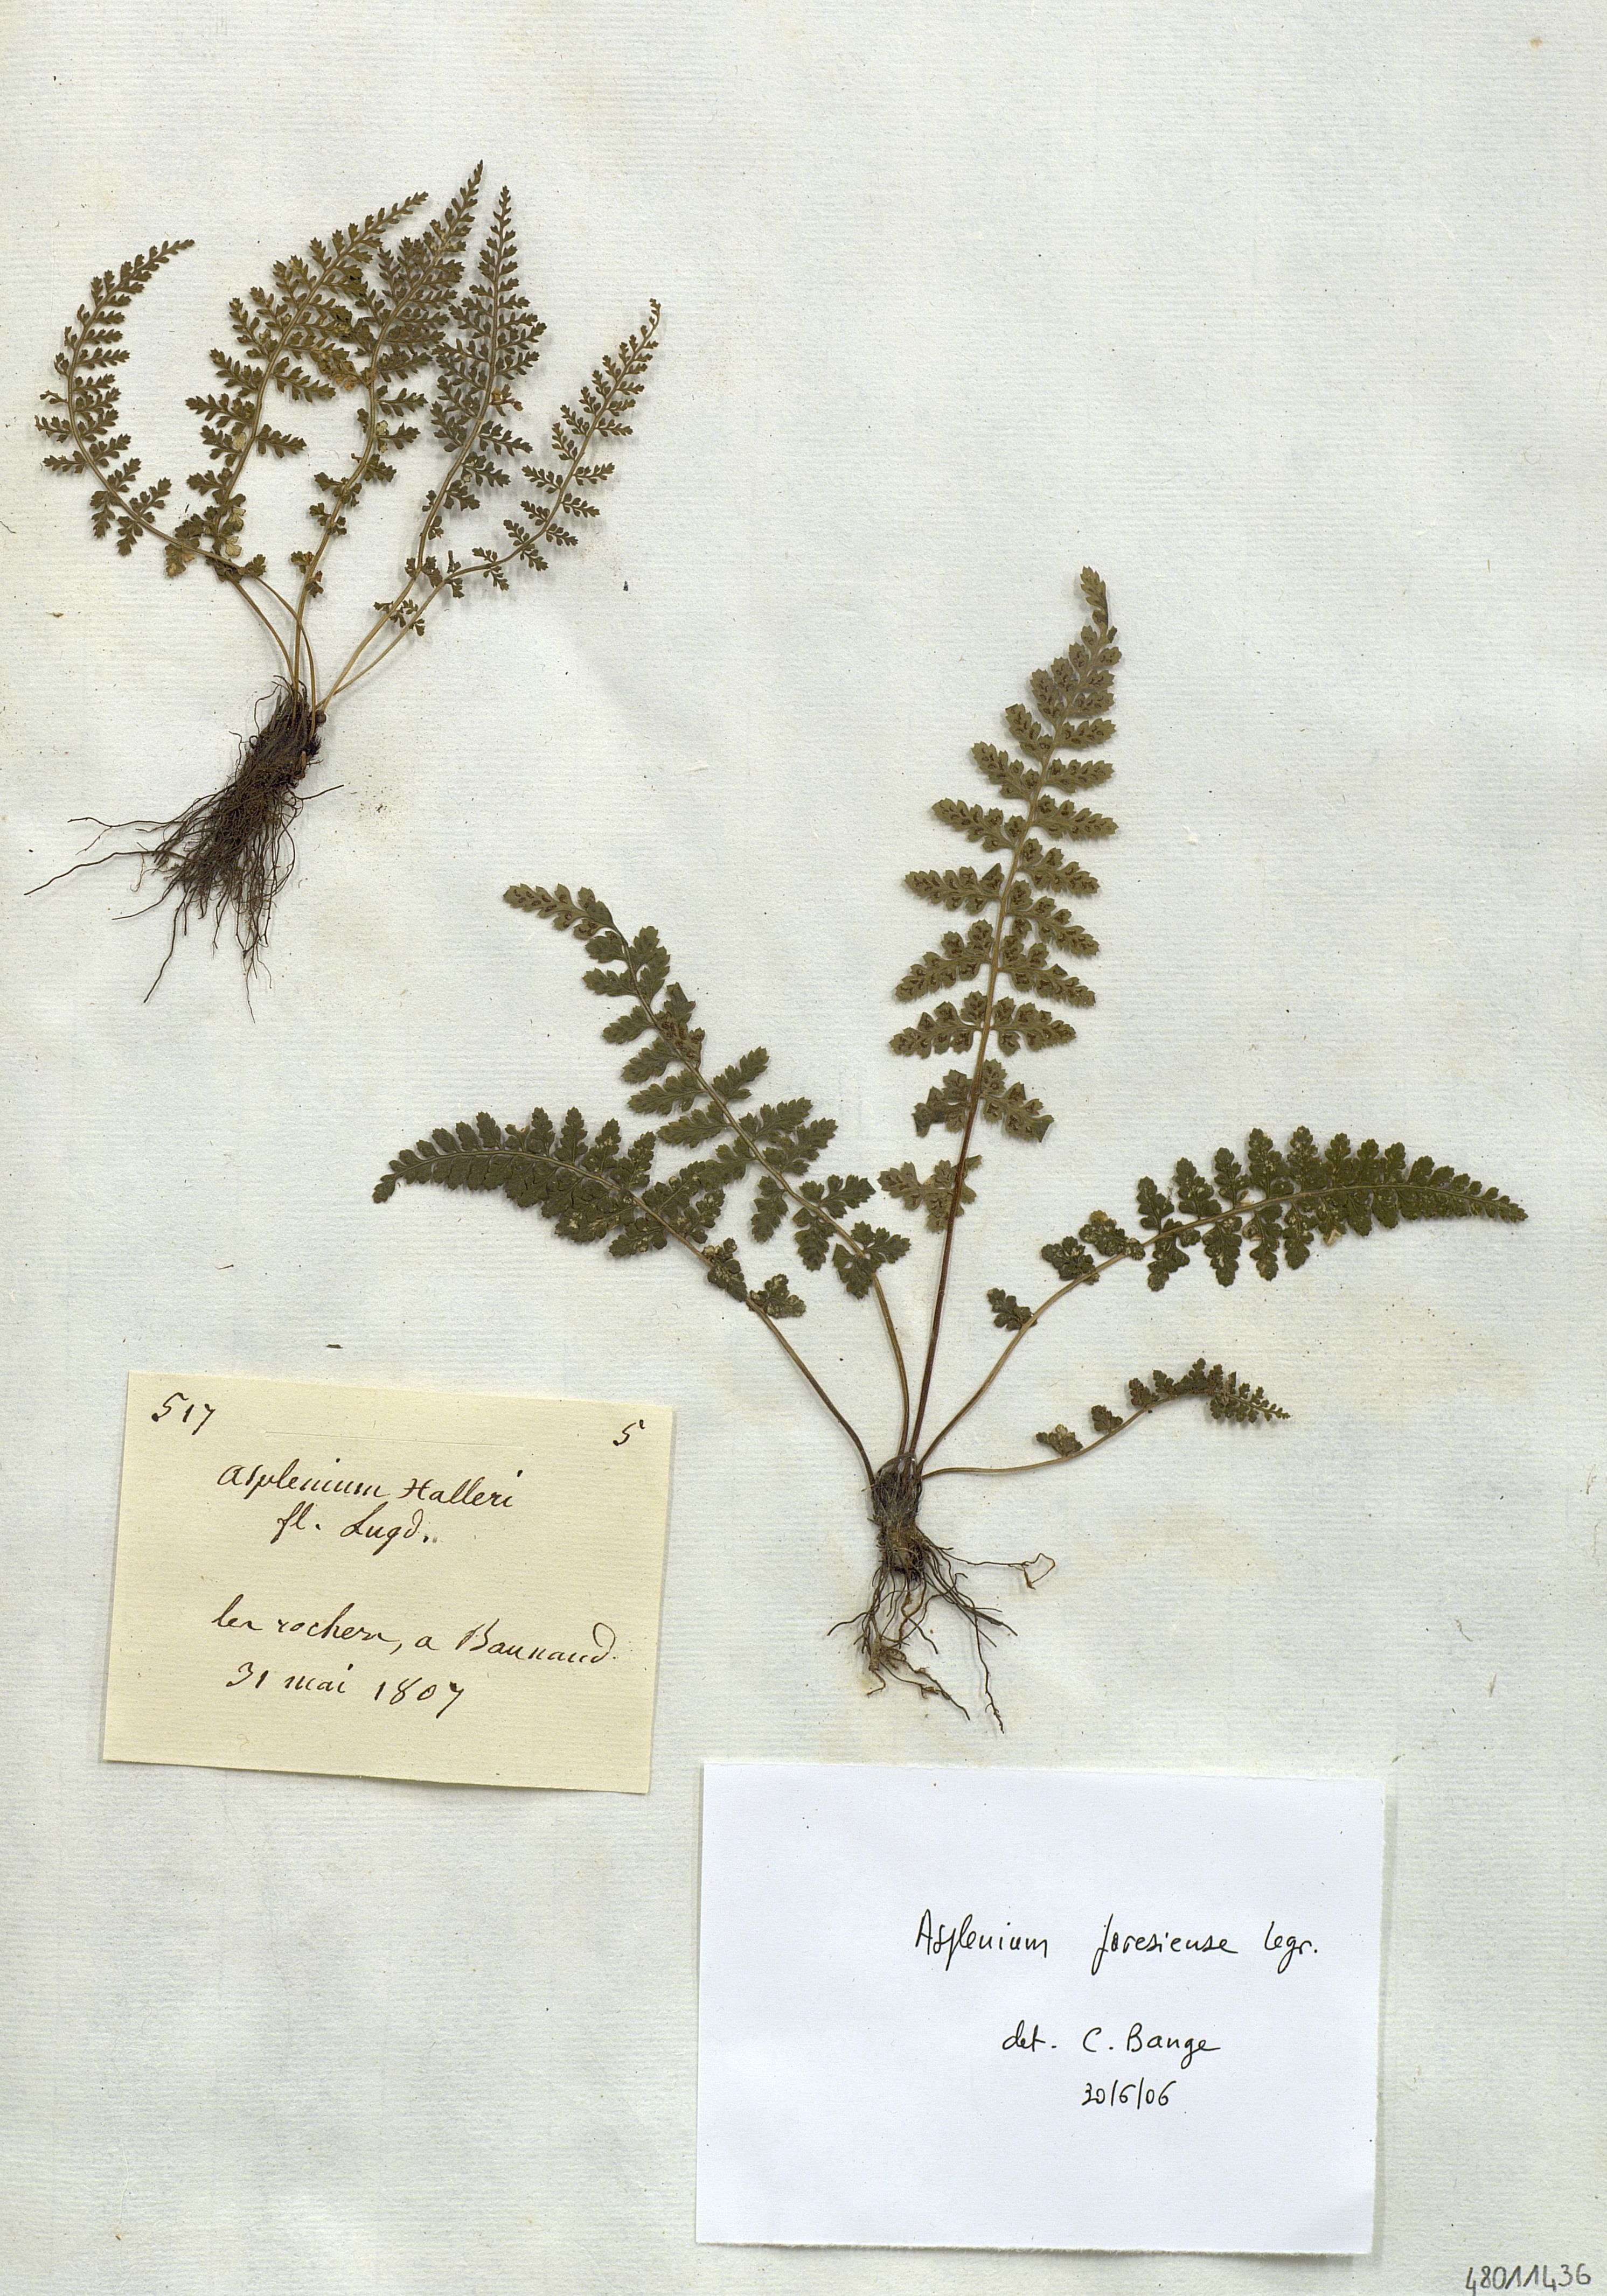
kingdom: Plantae
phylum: Tracheophyta
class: Polypodiopsida
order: Polypodiales
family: Aspleniaceae
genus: Asplenium
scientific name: Asplenium fontanum
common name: Fountain spleenwort
